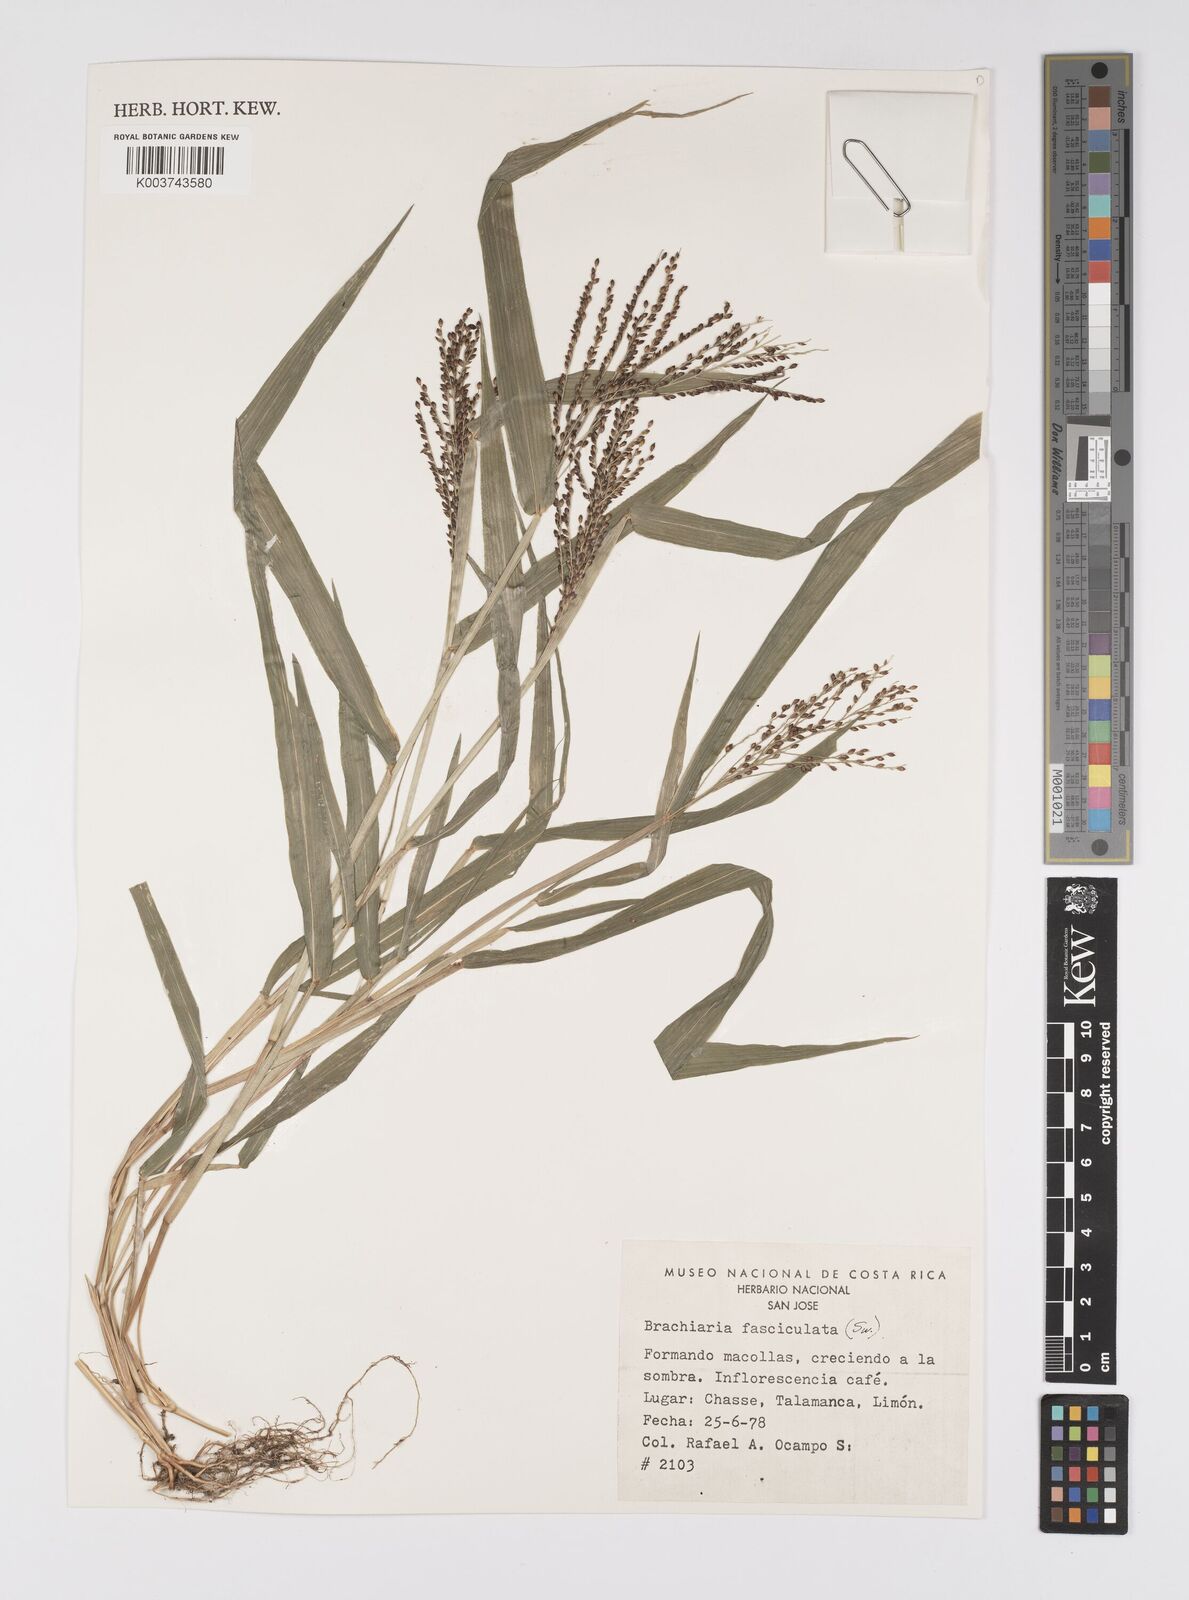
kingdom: Plantae
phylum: Tracheophyta
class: Liliopsida
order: Poales
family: Poaceae
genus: Urochloa
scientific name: Urochloa fusca
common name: Browntop signal grass
